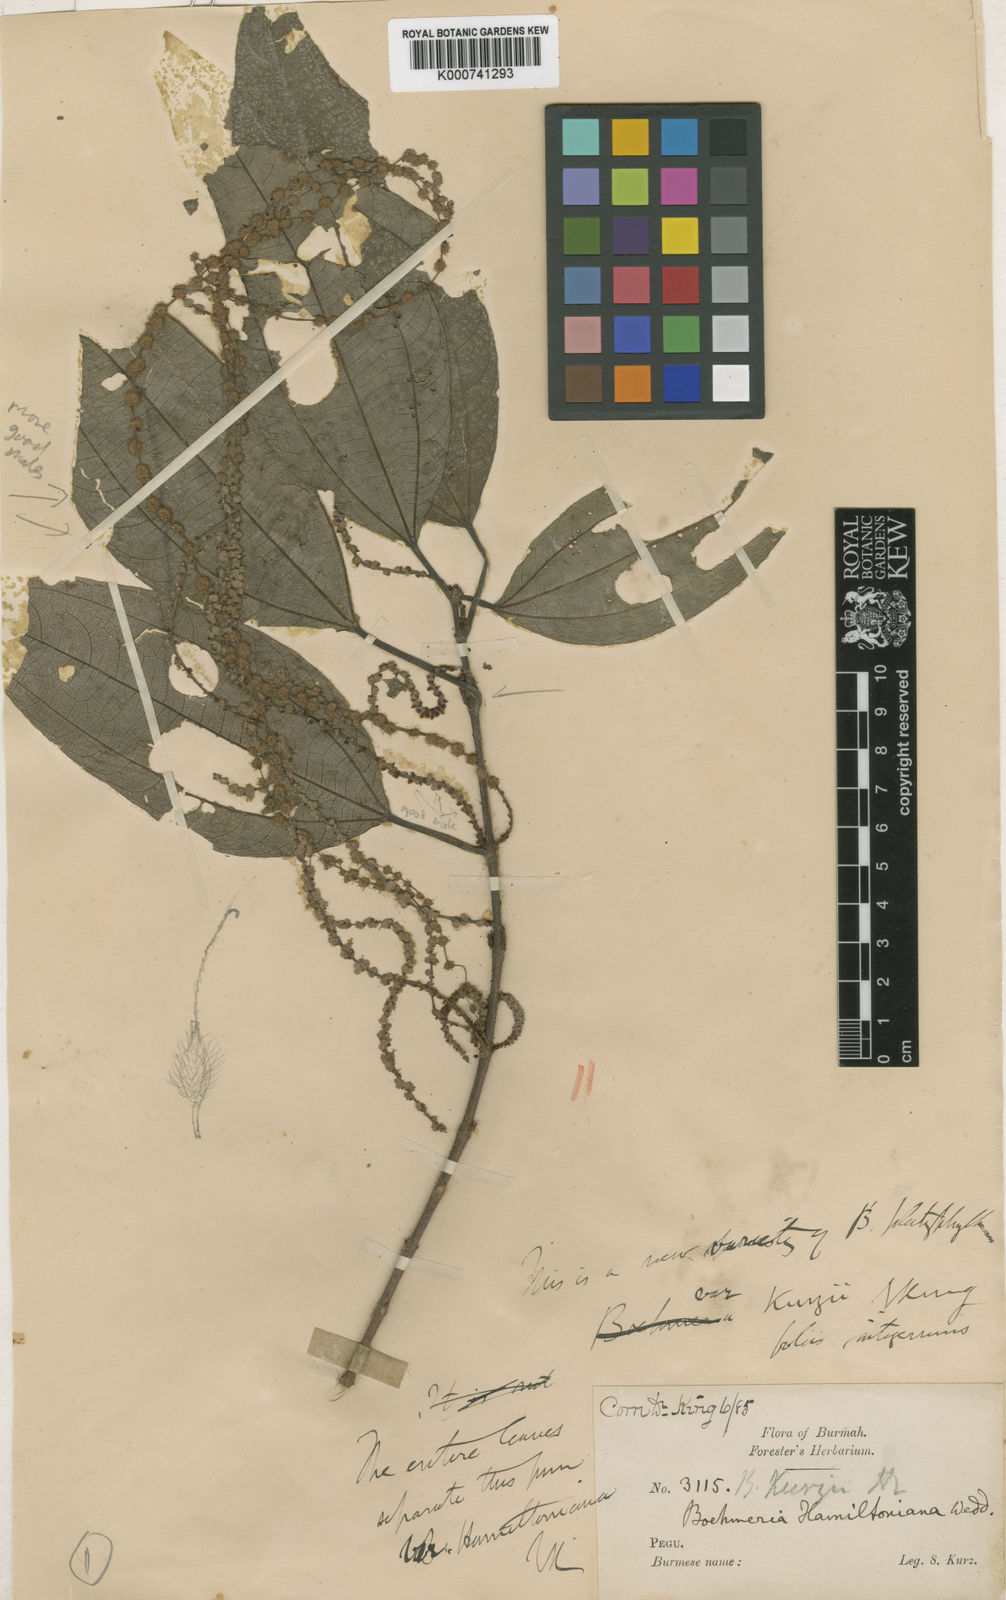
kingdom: Plantae
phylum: Tracheophyta
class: Magnoliopsida
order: Rosales
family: Urticaceae
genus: Boehmeria
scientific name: Boehmeria kurzii
